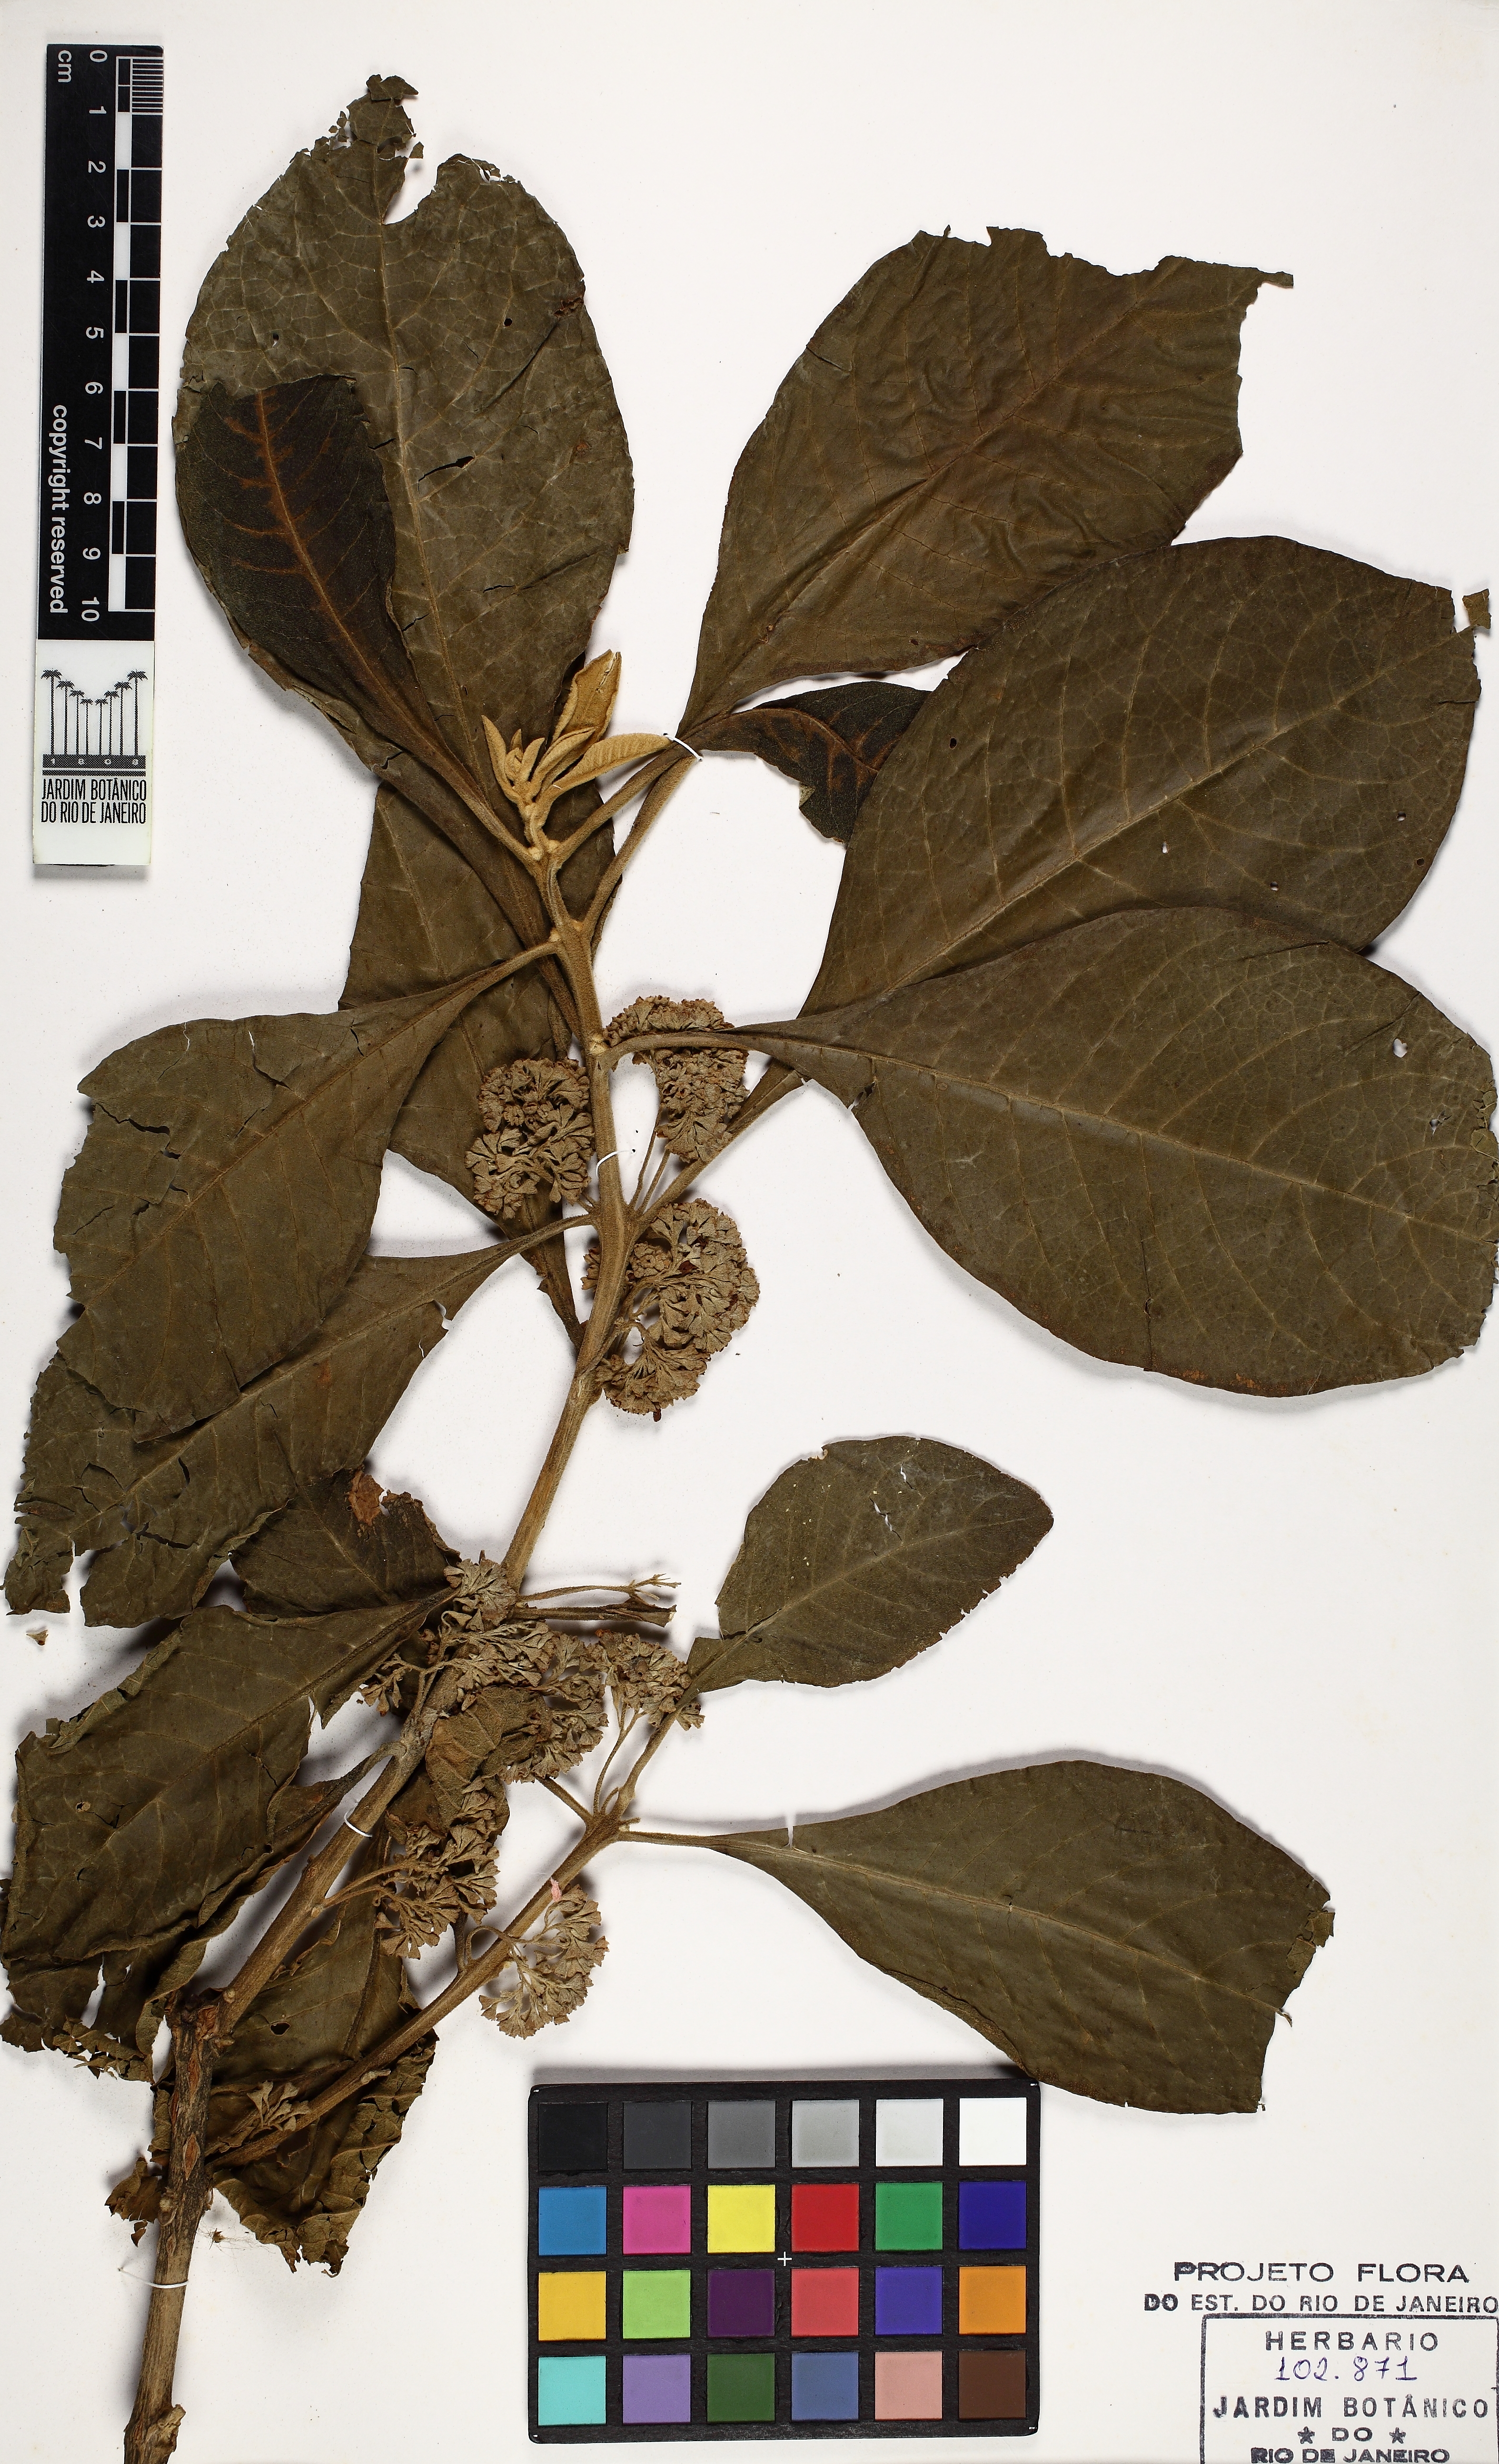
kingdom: Plantae
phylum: Tracheophyta
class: Magnoliopsida
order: Lamiales
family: Lamiaceae
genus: Aegiphila
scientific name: Aegiphila verticillata
